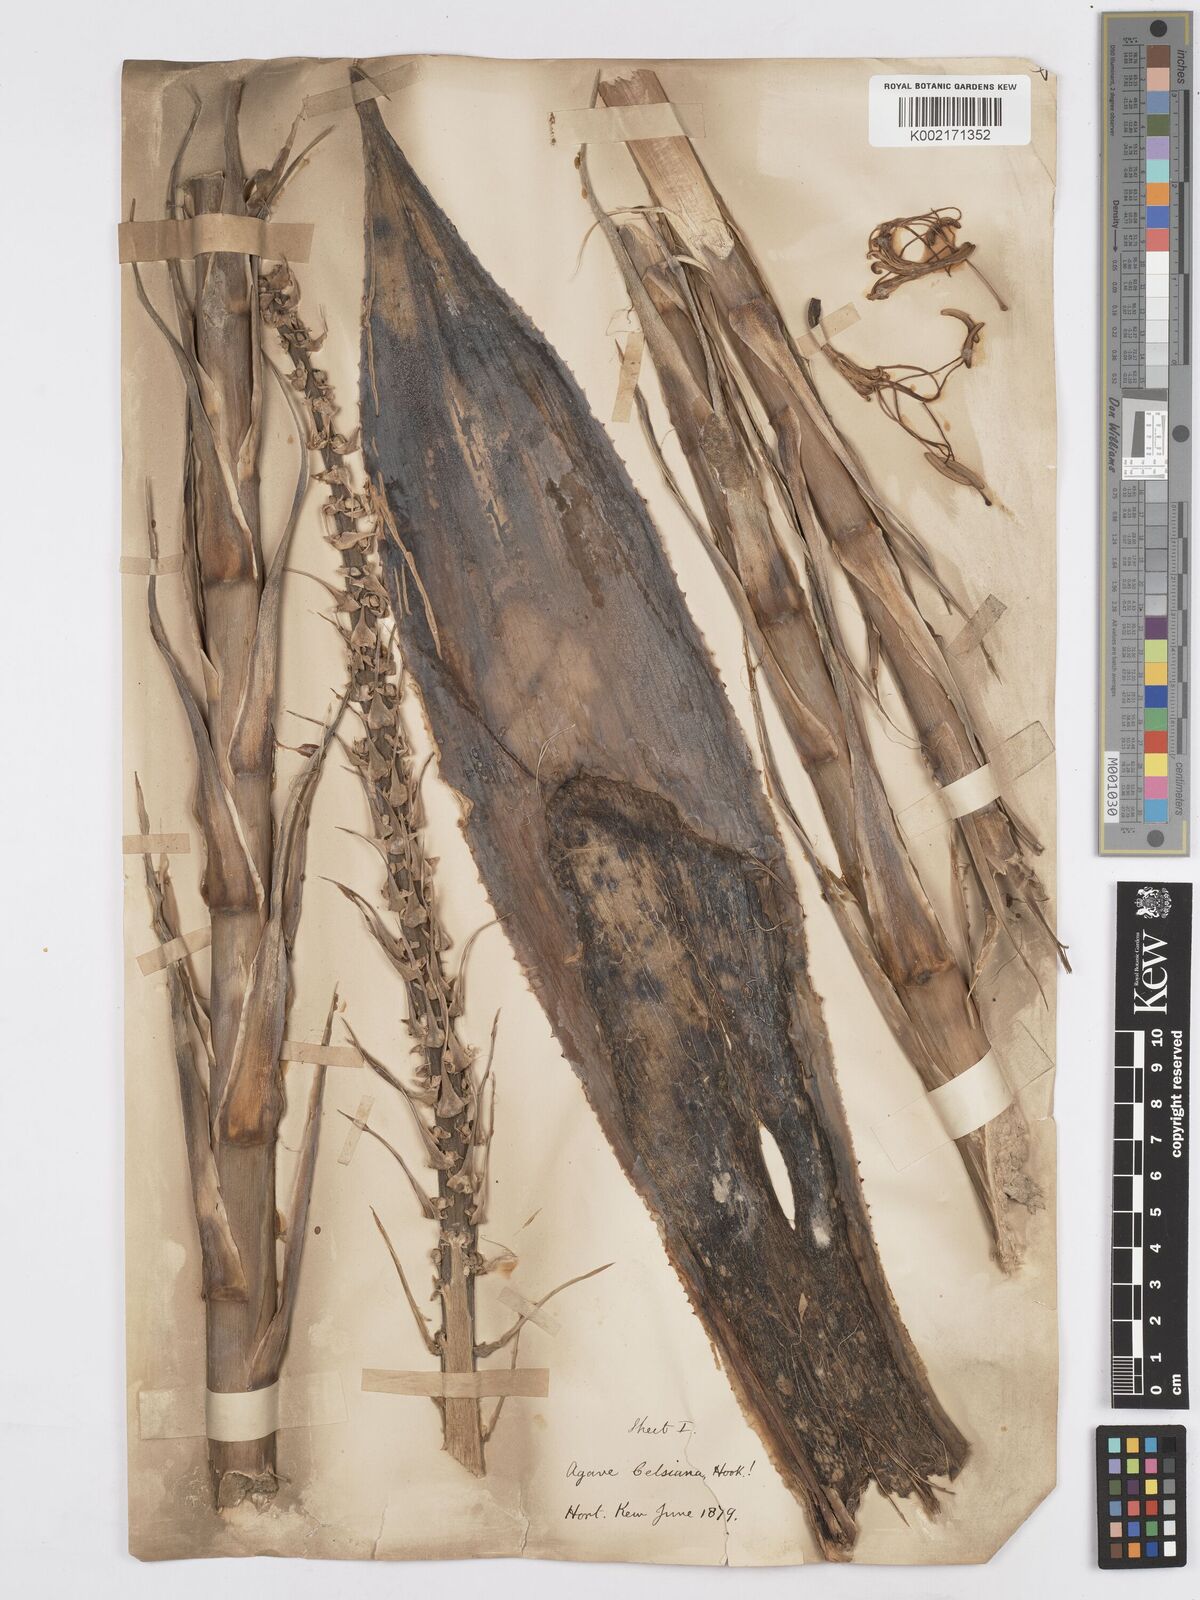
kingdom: Plantae
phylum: Tracheophyta
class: Liliopsida
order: Asparagales
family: Asparagaceae
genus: Agave
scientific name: Agave mitis
